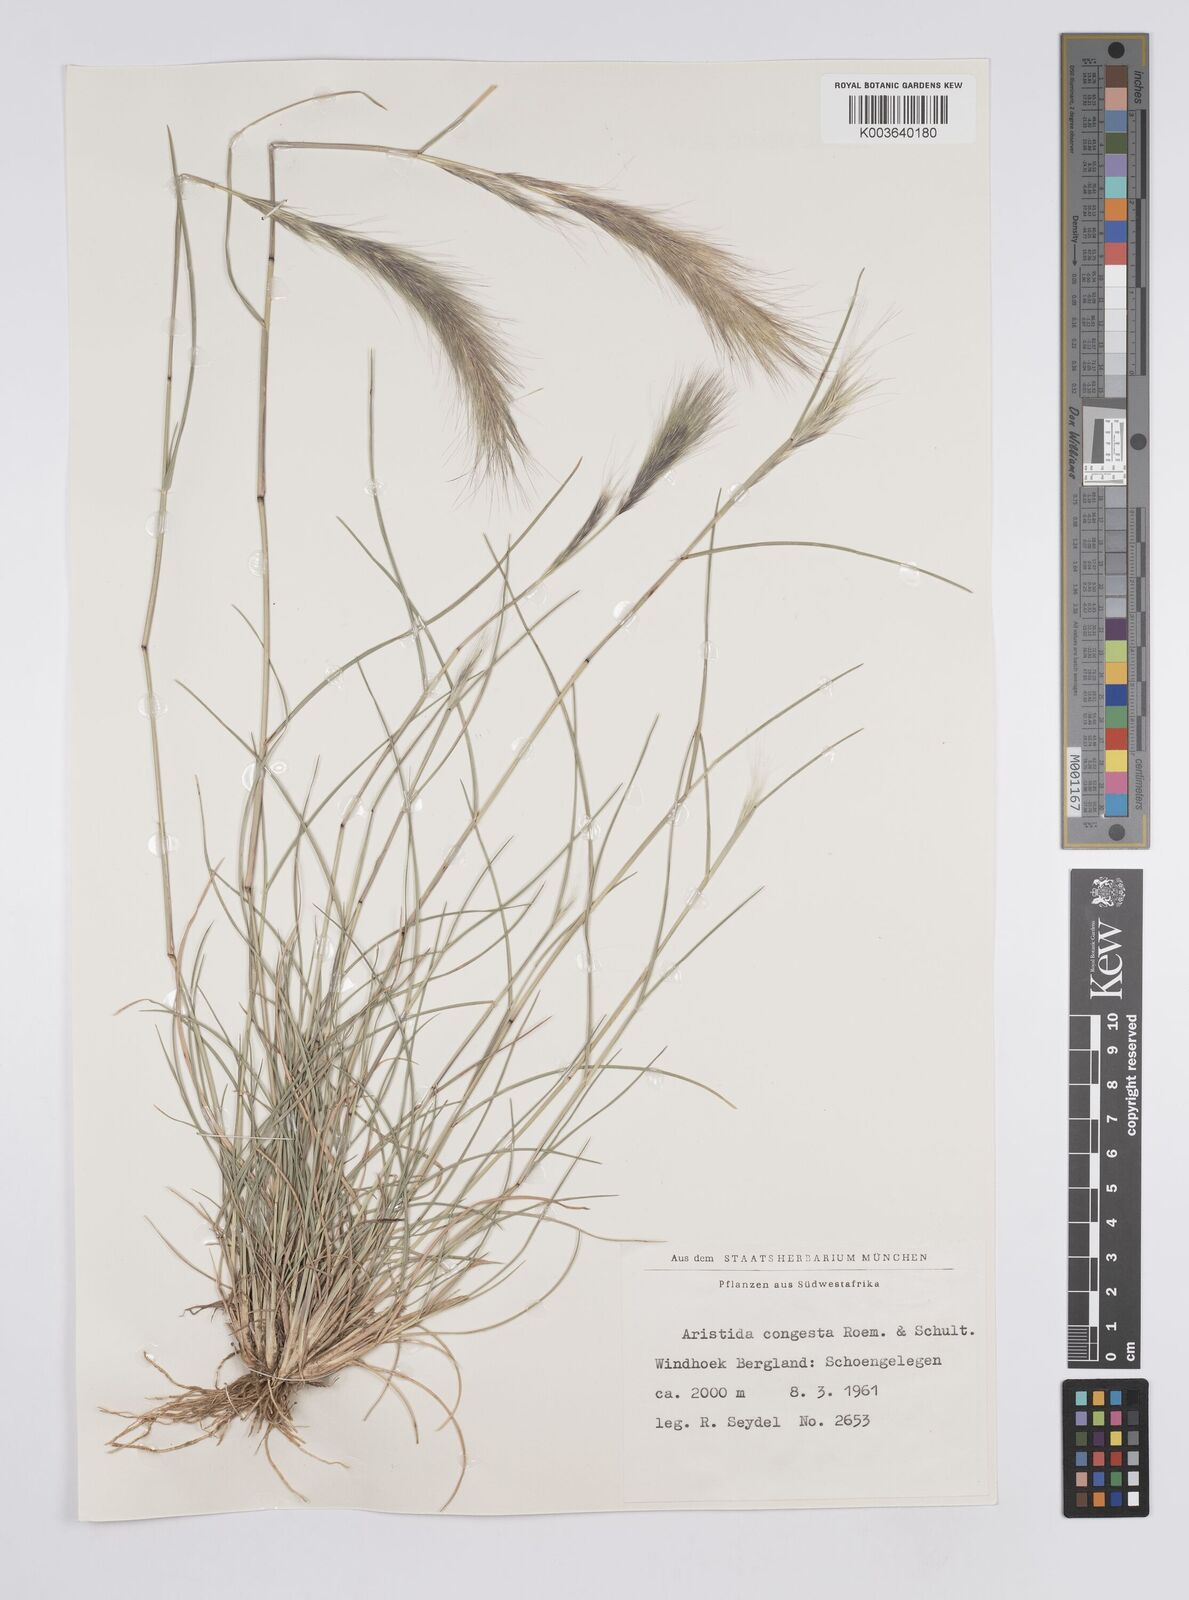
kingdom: Plantae
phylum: Tracheophyta
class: Liliopsida
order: Poales
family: Poaceae
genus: Aristida
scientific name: Aristida congesta
